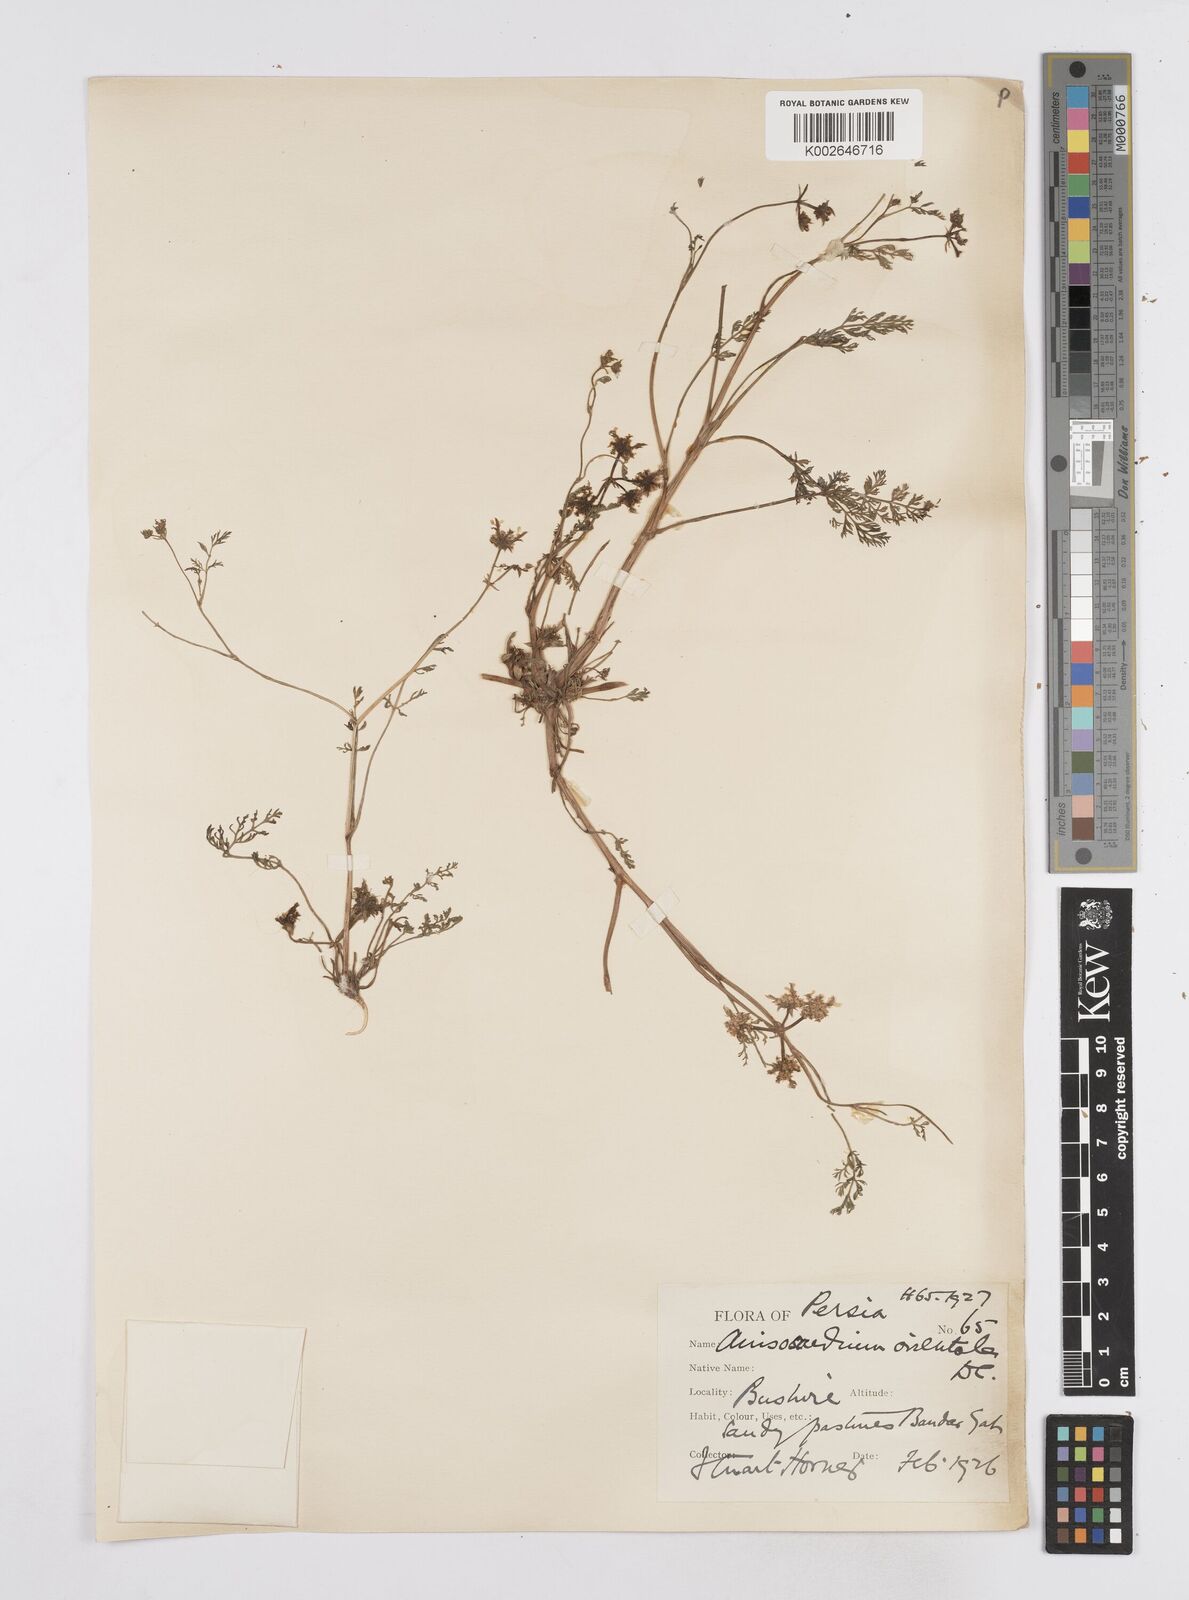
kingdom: Plantae
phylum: Tracheophyta
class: Magnoliopsida
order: Apiales
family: Apiaceae
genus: Anisosciadium
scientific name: Anisosciadium orientale
